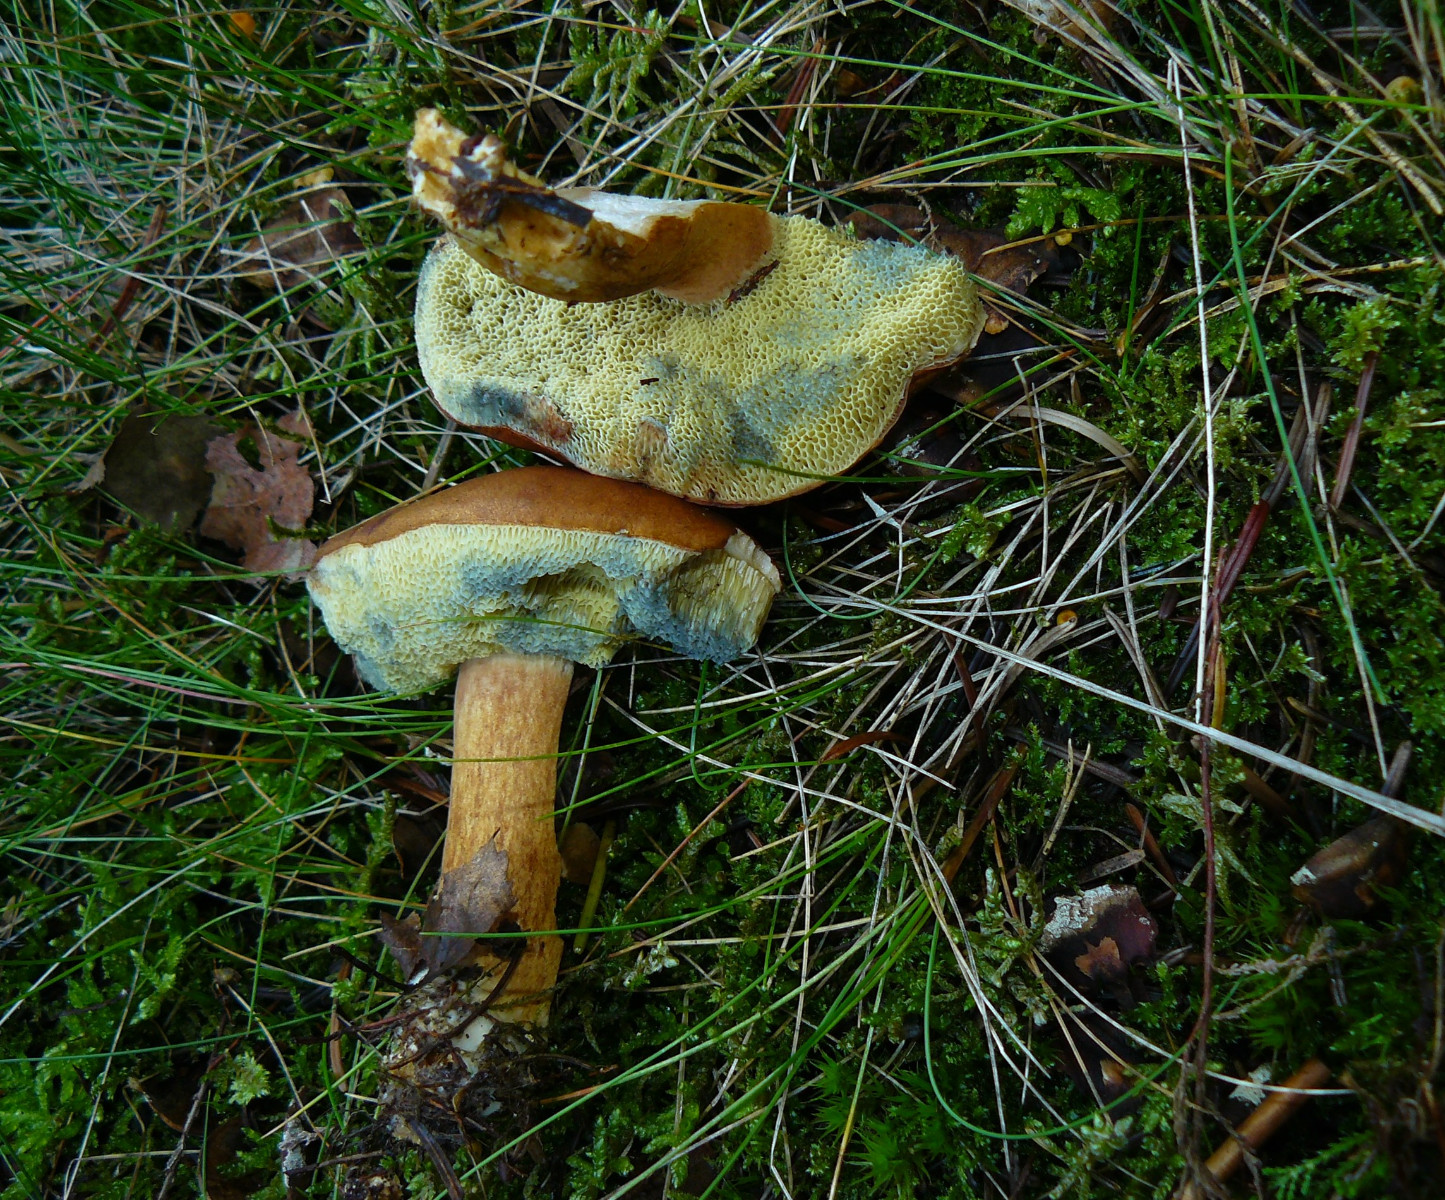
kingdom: Fungi
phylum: Basidiomycota
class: Agaricomycetes
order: Boletales
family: Boletaceae
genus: Imleria
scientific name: Imleria badia
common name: brunstokket rørhat
